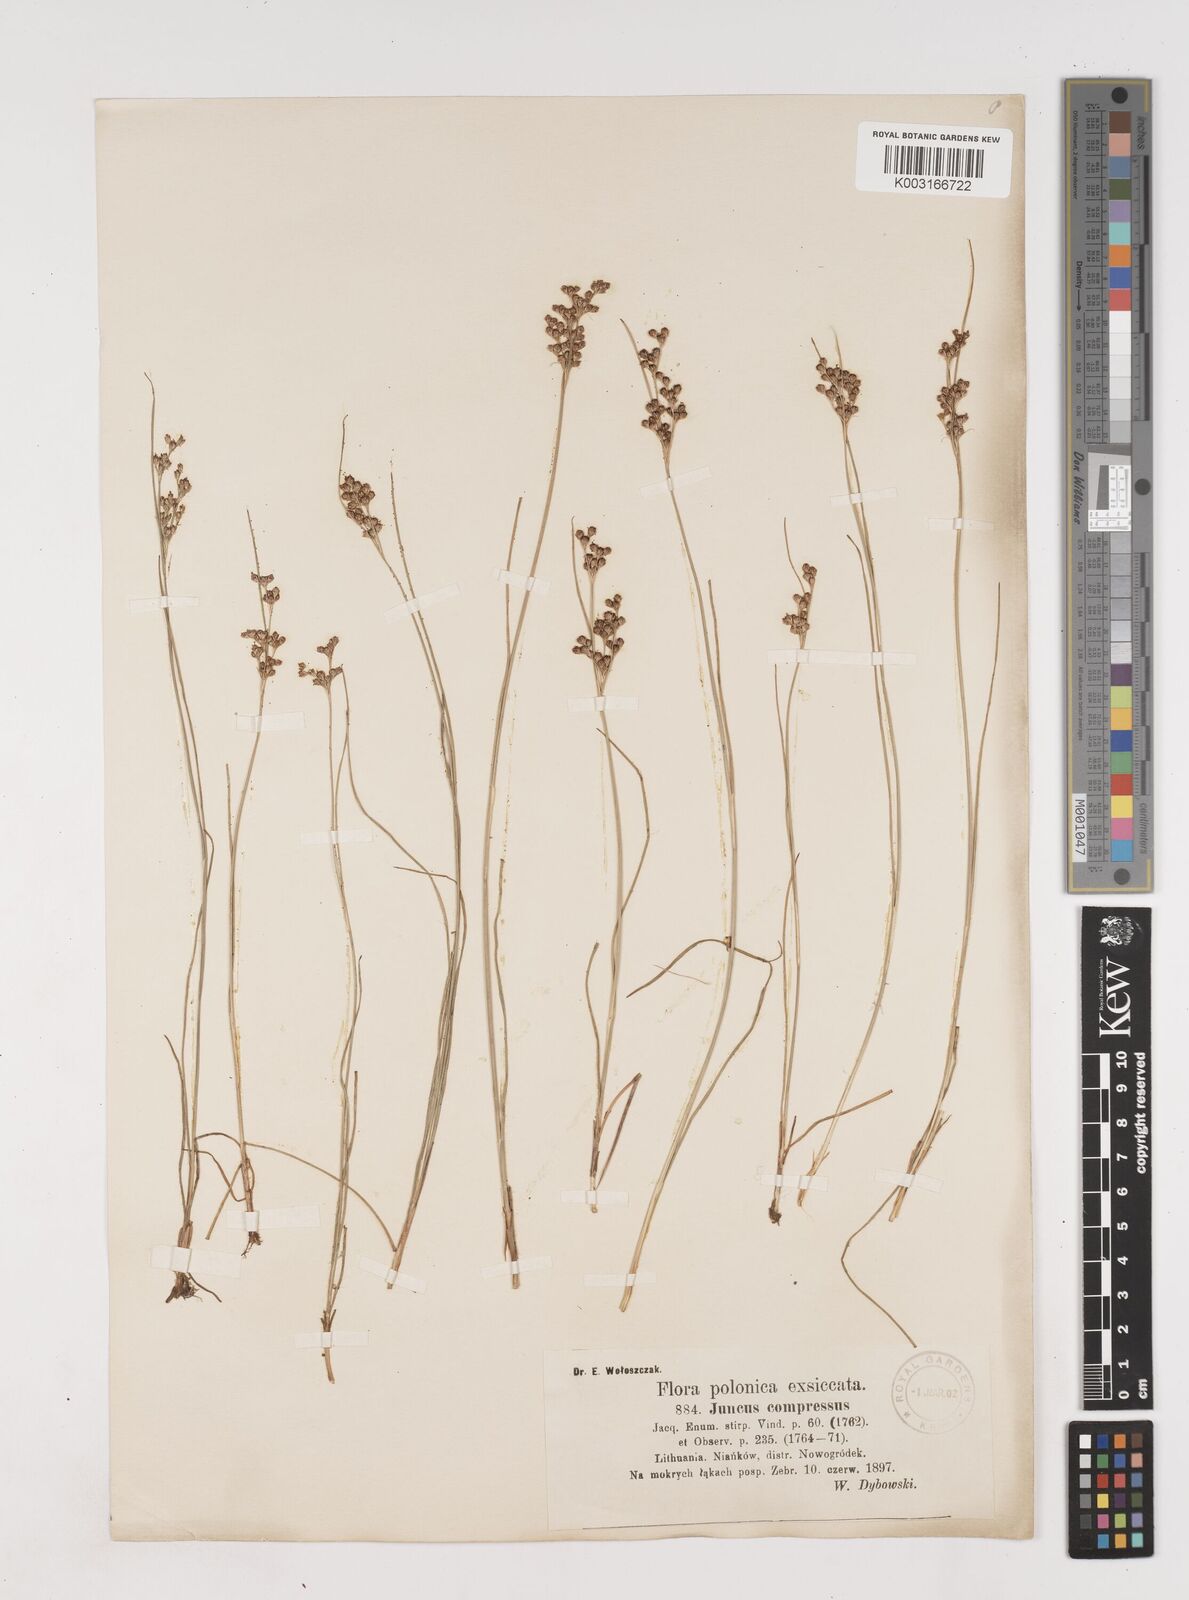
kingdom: Plantae
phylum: Tracheophyta
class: Liliopsida
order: Poales
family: Juncaceae
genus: Juncus
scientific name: Juncus
